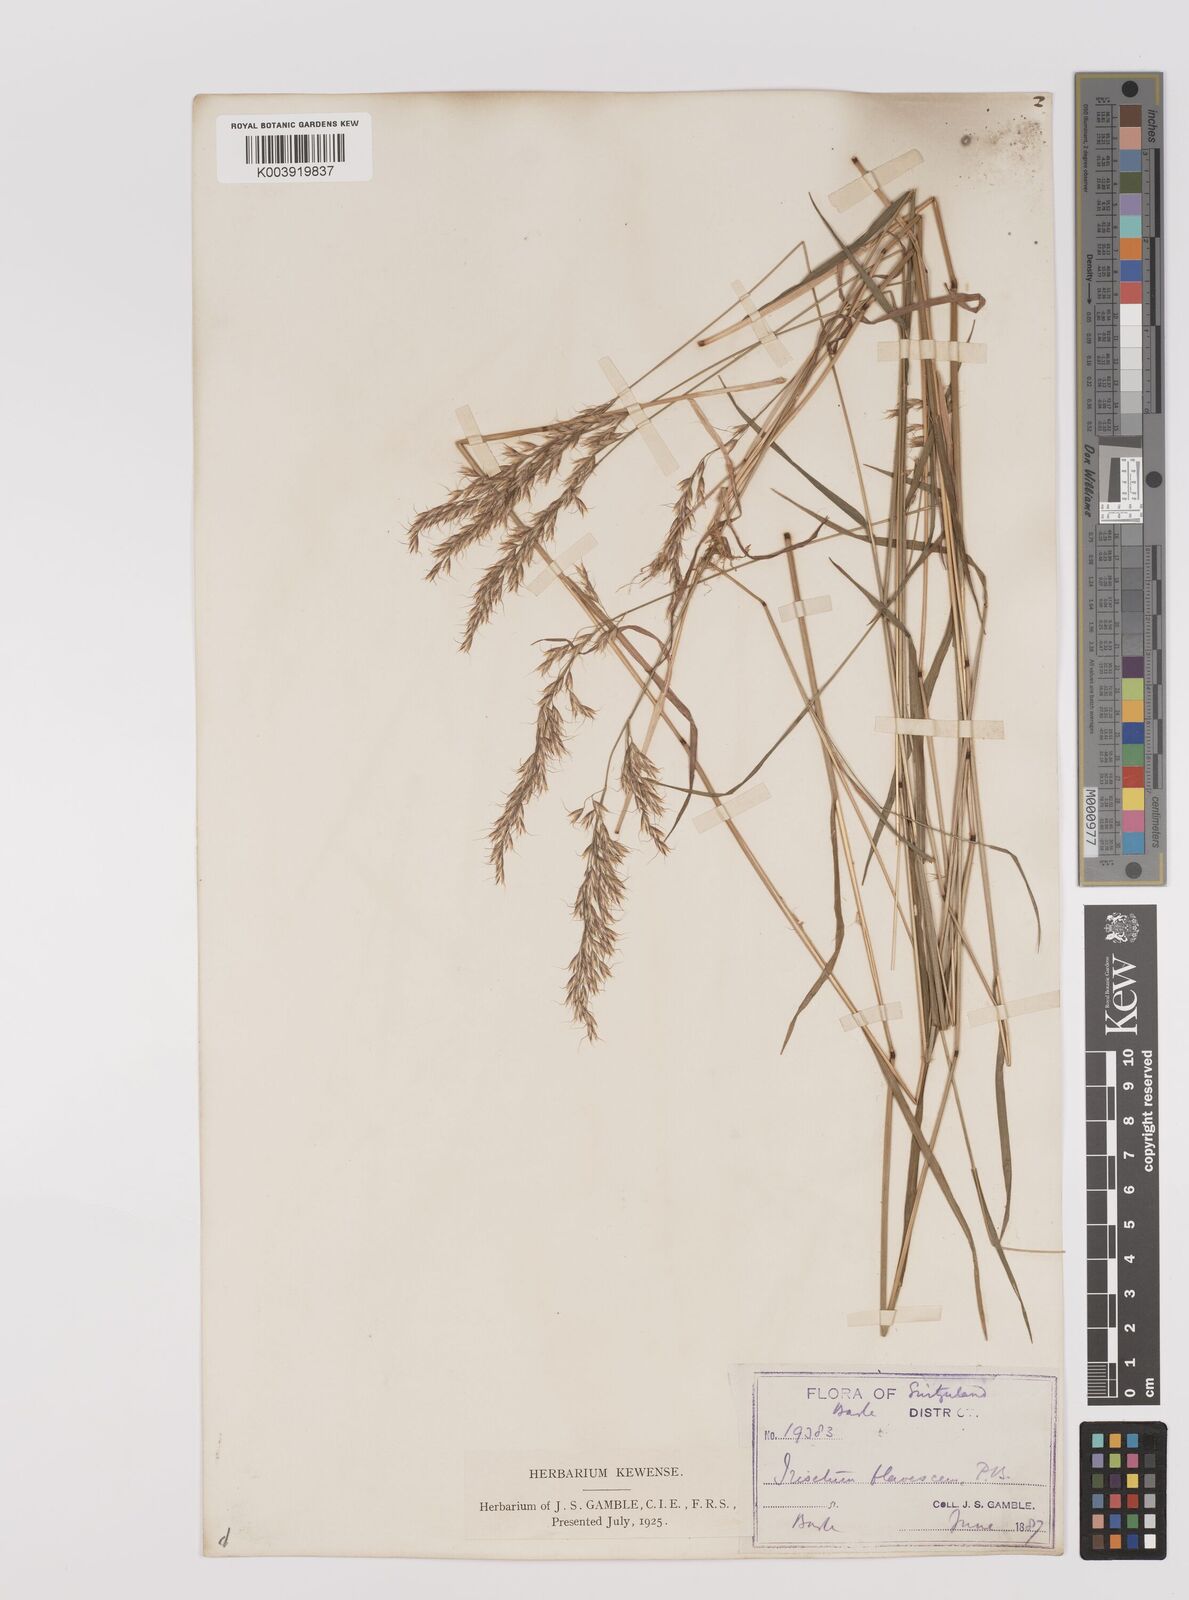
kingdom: Plantae
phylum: Tracheophyta
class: Liliopsida
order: Poales
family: Poaceae
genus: Trisetum
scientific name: Trisetum flavescens
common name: Yellow oat-grass
